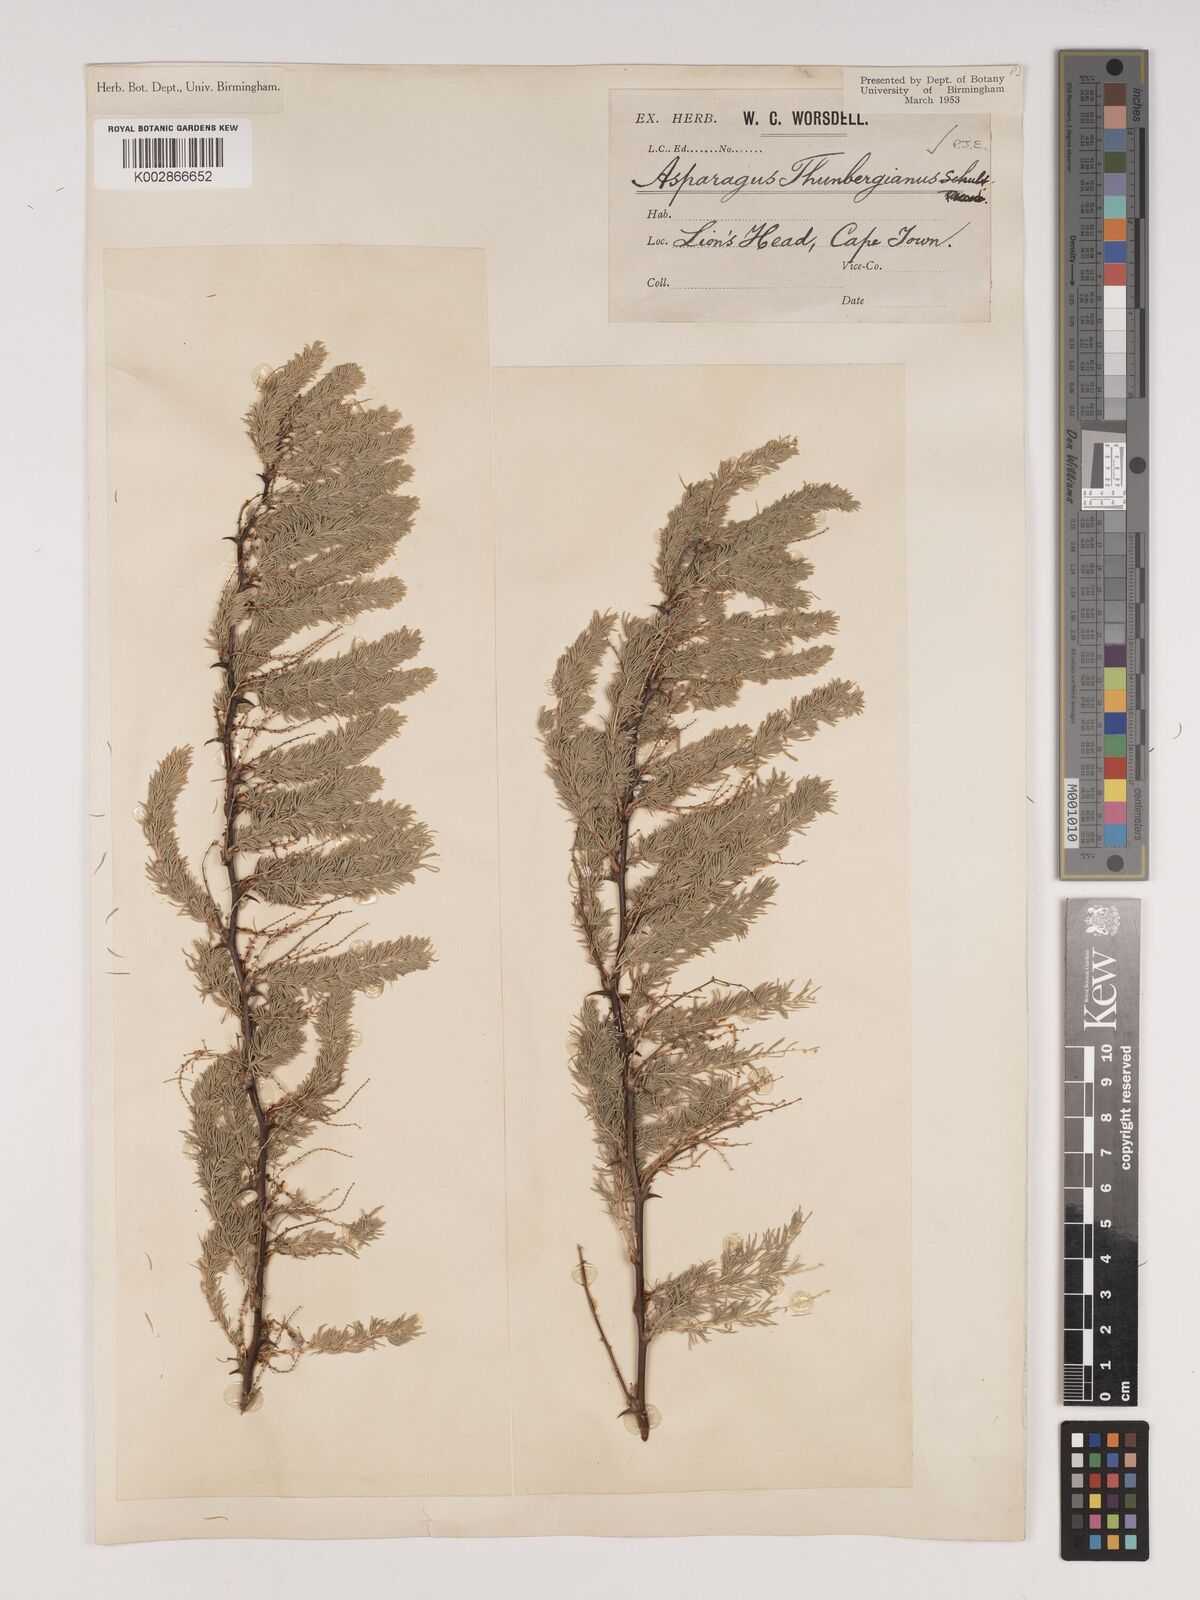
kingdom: Plantae
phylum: Tracheophyta
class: Liliopsida
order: Asparagales
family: Asparagaceae
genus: Asparagus
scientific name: Asparagus rubicundus
